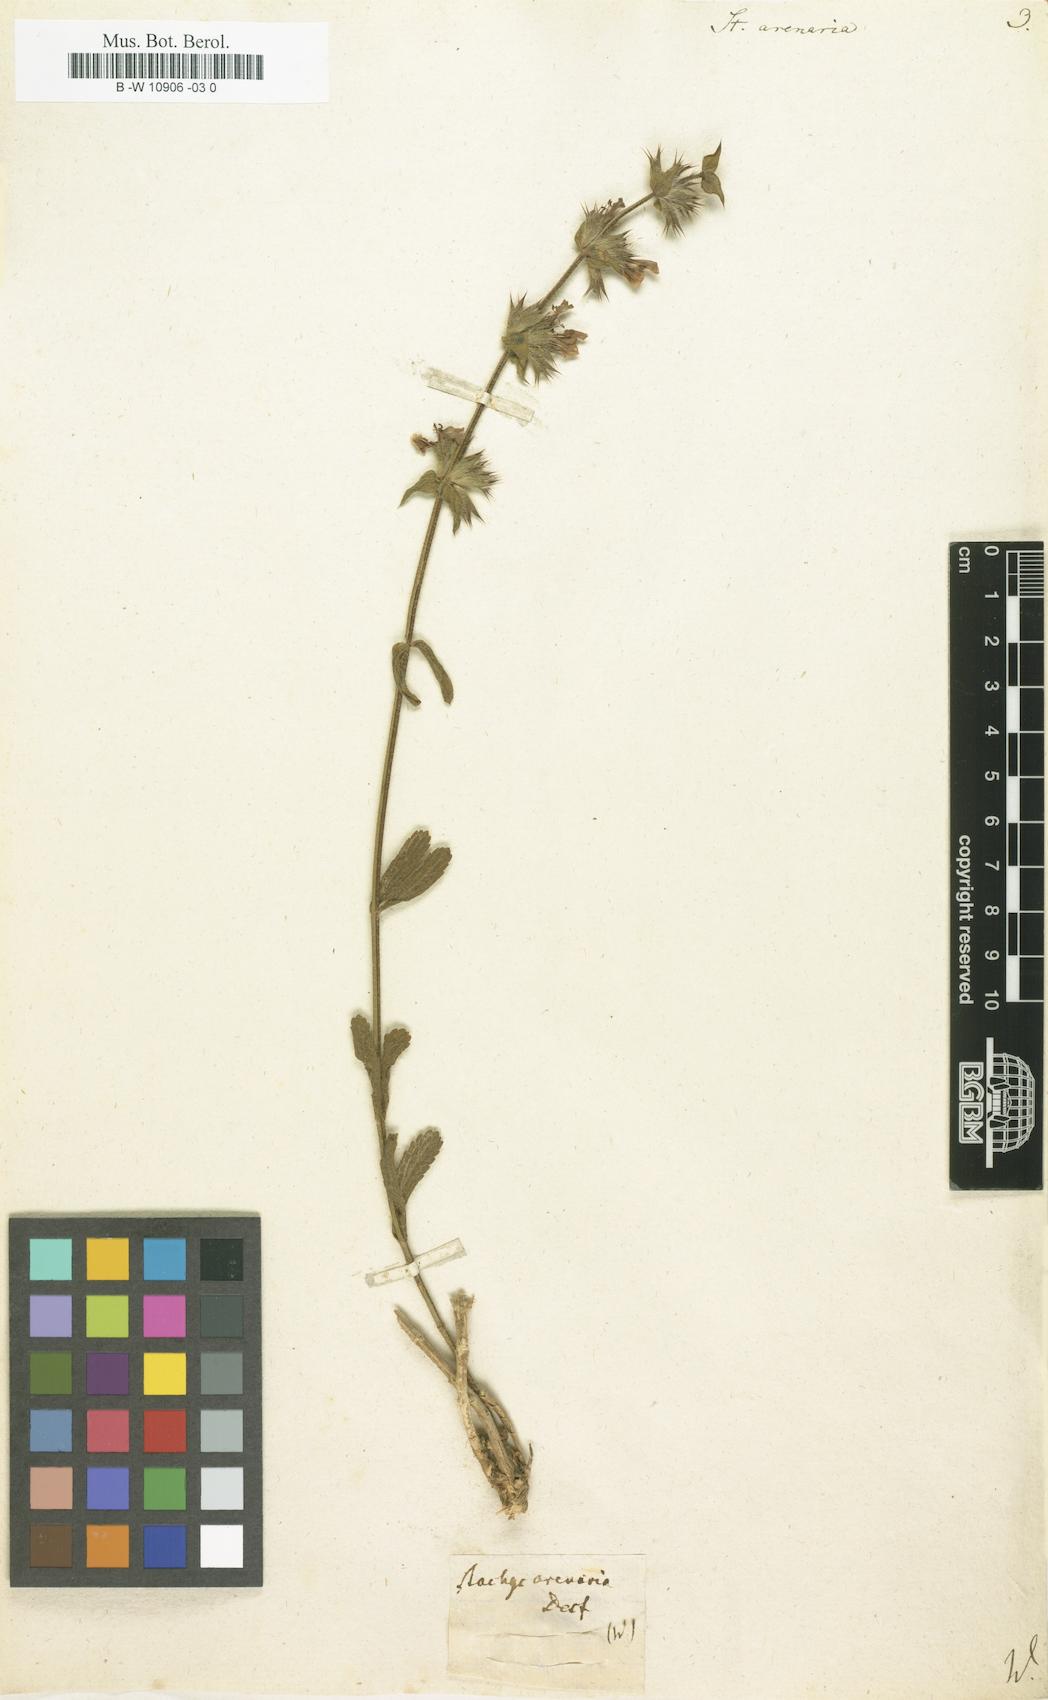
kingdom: Plantae
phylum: Tracheophyta
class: Magnoliopsida
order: Lamiales
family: Lamiaceae
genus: Stachys
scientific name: Stachys arenaria
